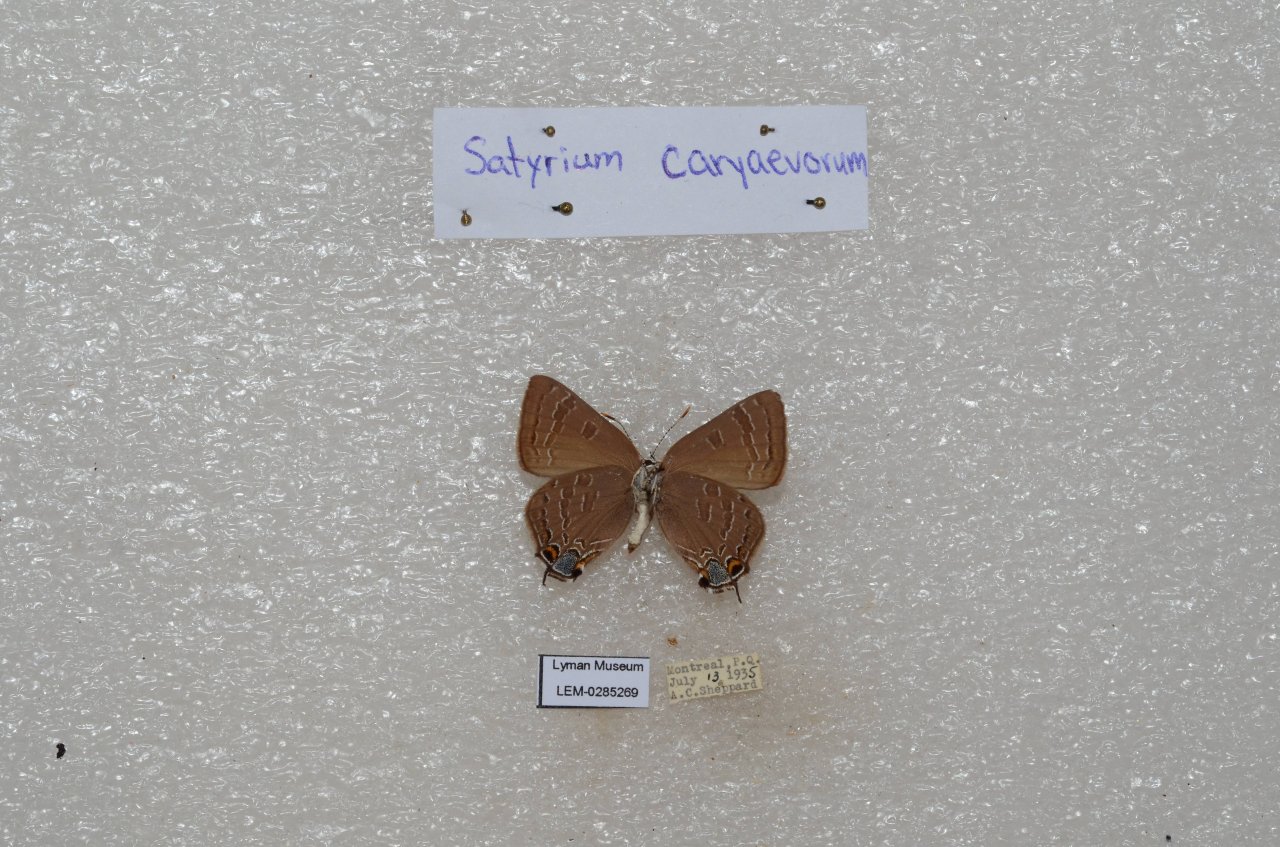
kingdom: Animalia
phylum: Arthropoda
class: Insecta
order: Lepidoptera
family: Lycaenidae
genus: Strymon
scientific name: Strymon caryaevorus
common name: Hickory Hairstreak
